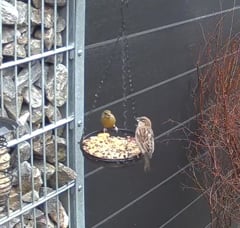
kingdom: Plantae
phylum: Tracheophyta
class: Liliopsida
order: Poales
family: Poaceae
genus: Chloris
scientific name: Chloris chloris
